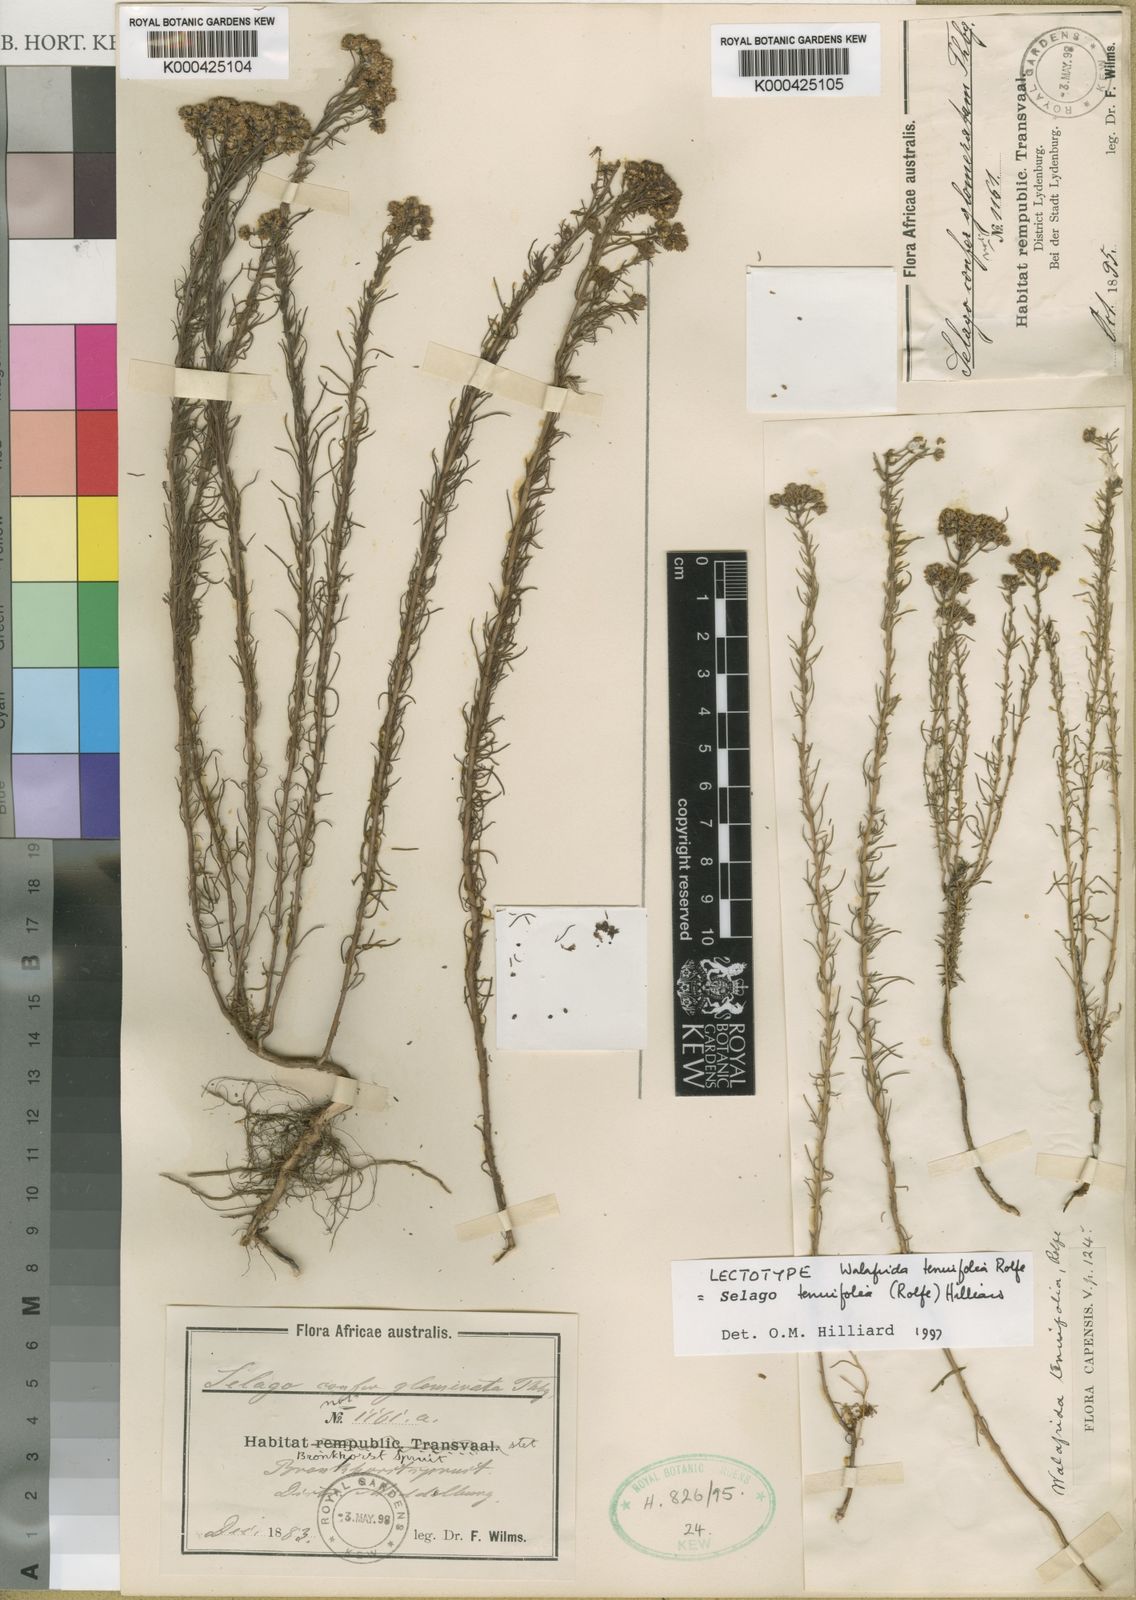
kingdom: Plantae
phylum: Tracheophyta
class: Magnoliopsida
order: Lamiales
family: Scrophulariaceae
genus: Selago
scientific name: Selago tenuifolia
